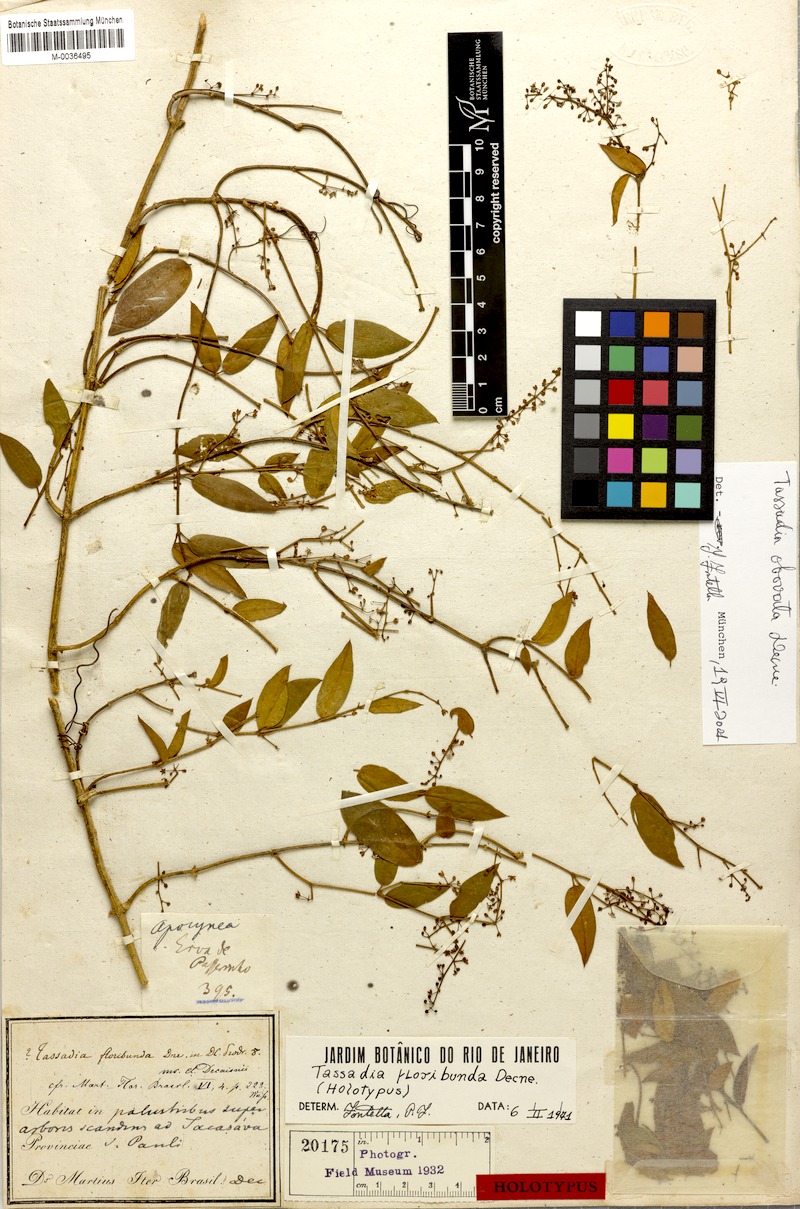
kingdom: Plantae
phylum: Tracheophyta
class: Magnoliopsida
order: Gentianales
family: Apocynaceae
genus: Tassadia
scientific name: Tassadia obovata
